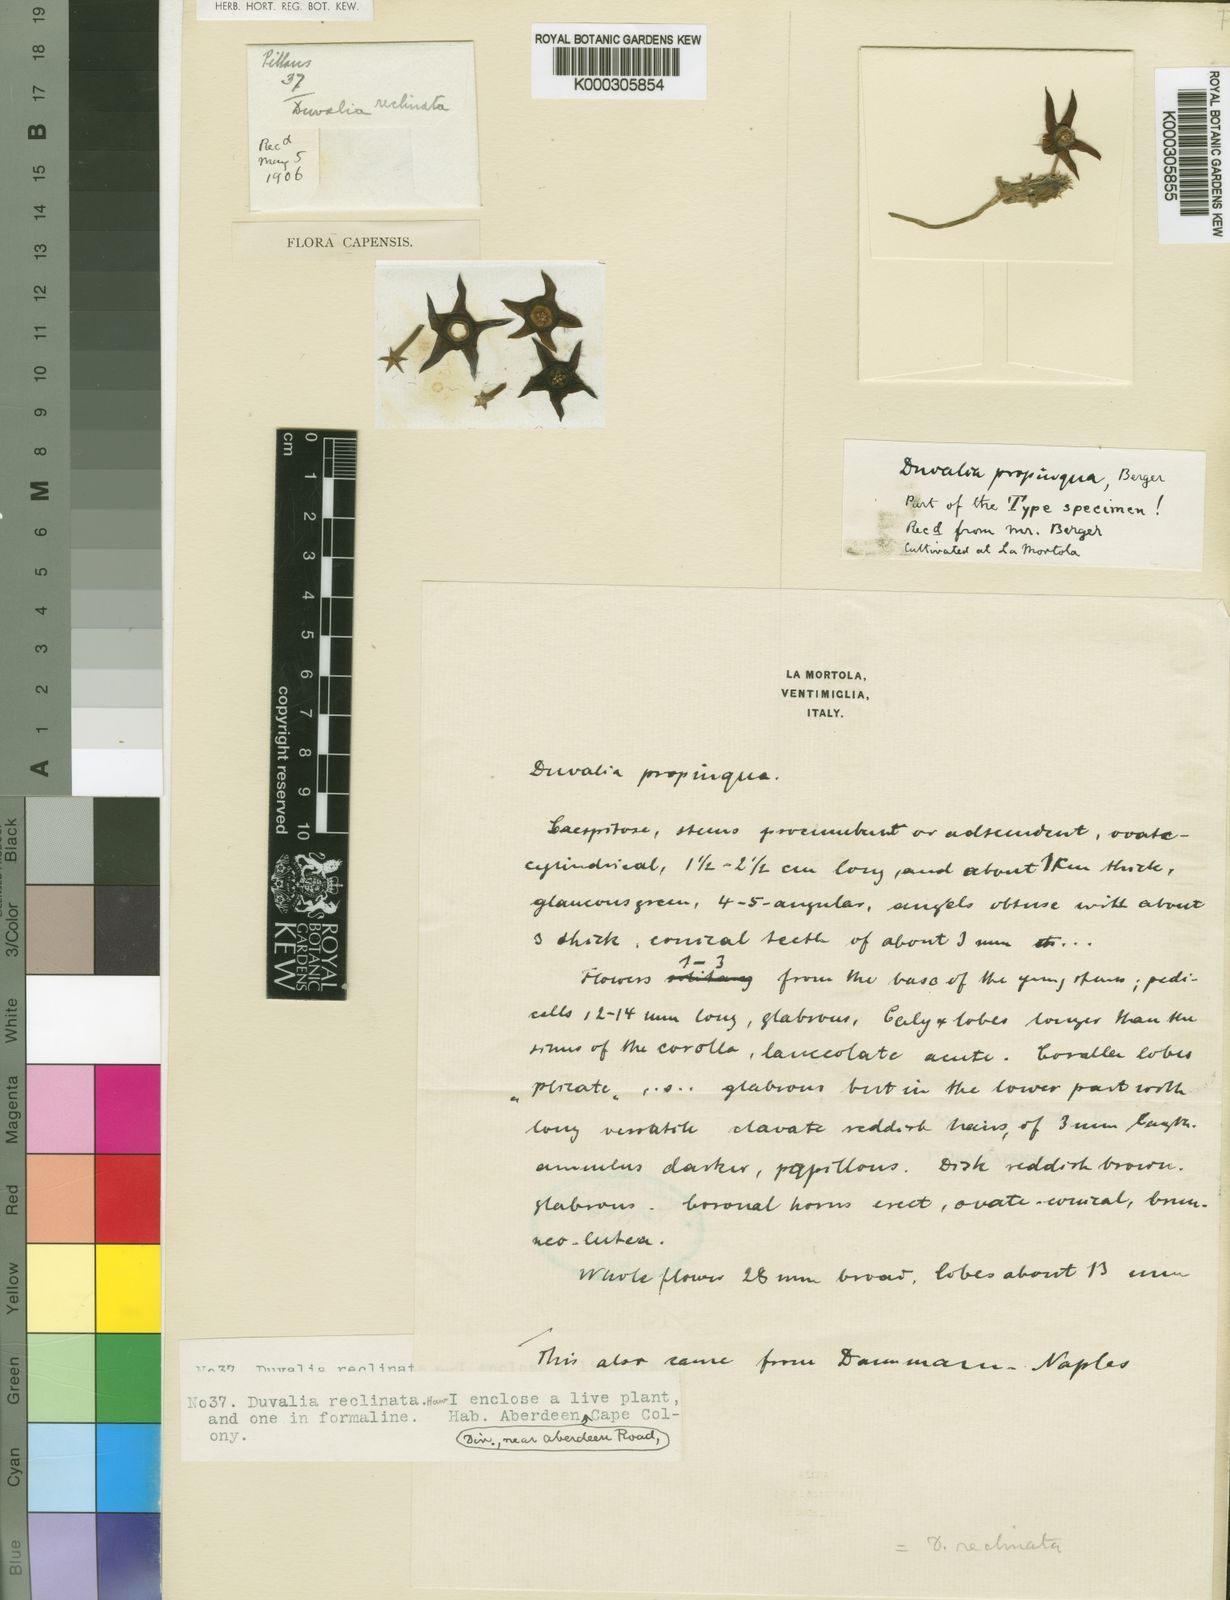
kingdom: Plantae
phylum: Tracheophyta
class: Magnoliopsida
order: Gentianales
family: Apocynaceae
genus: Ceropegia
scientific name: Ceropegia caespitosa
